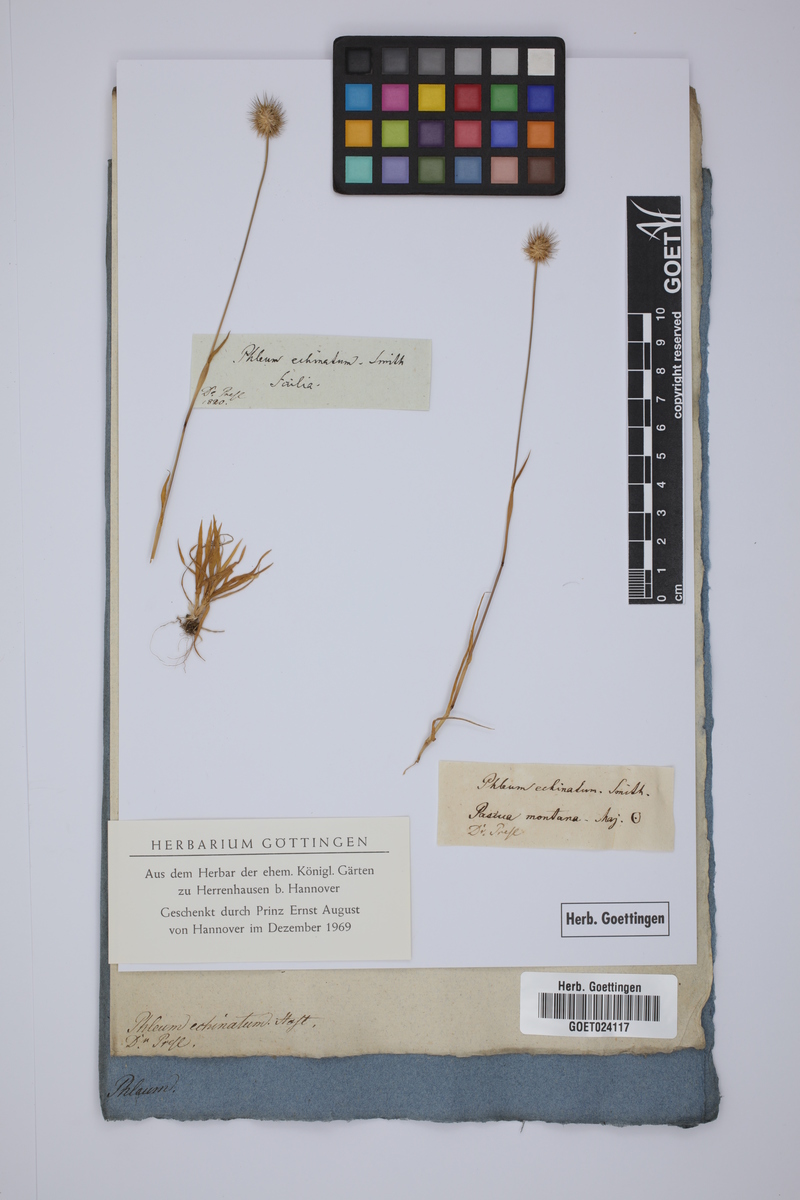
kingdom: Plantae
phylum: Tracheophyta
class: Liliopsida
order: Poales
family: Poaceae
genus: Phleum
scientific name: Phleum echinatum
